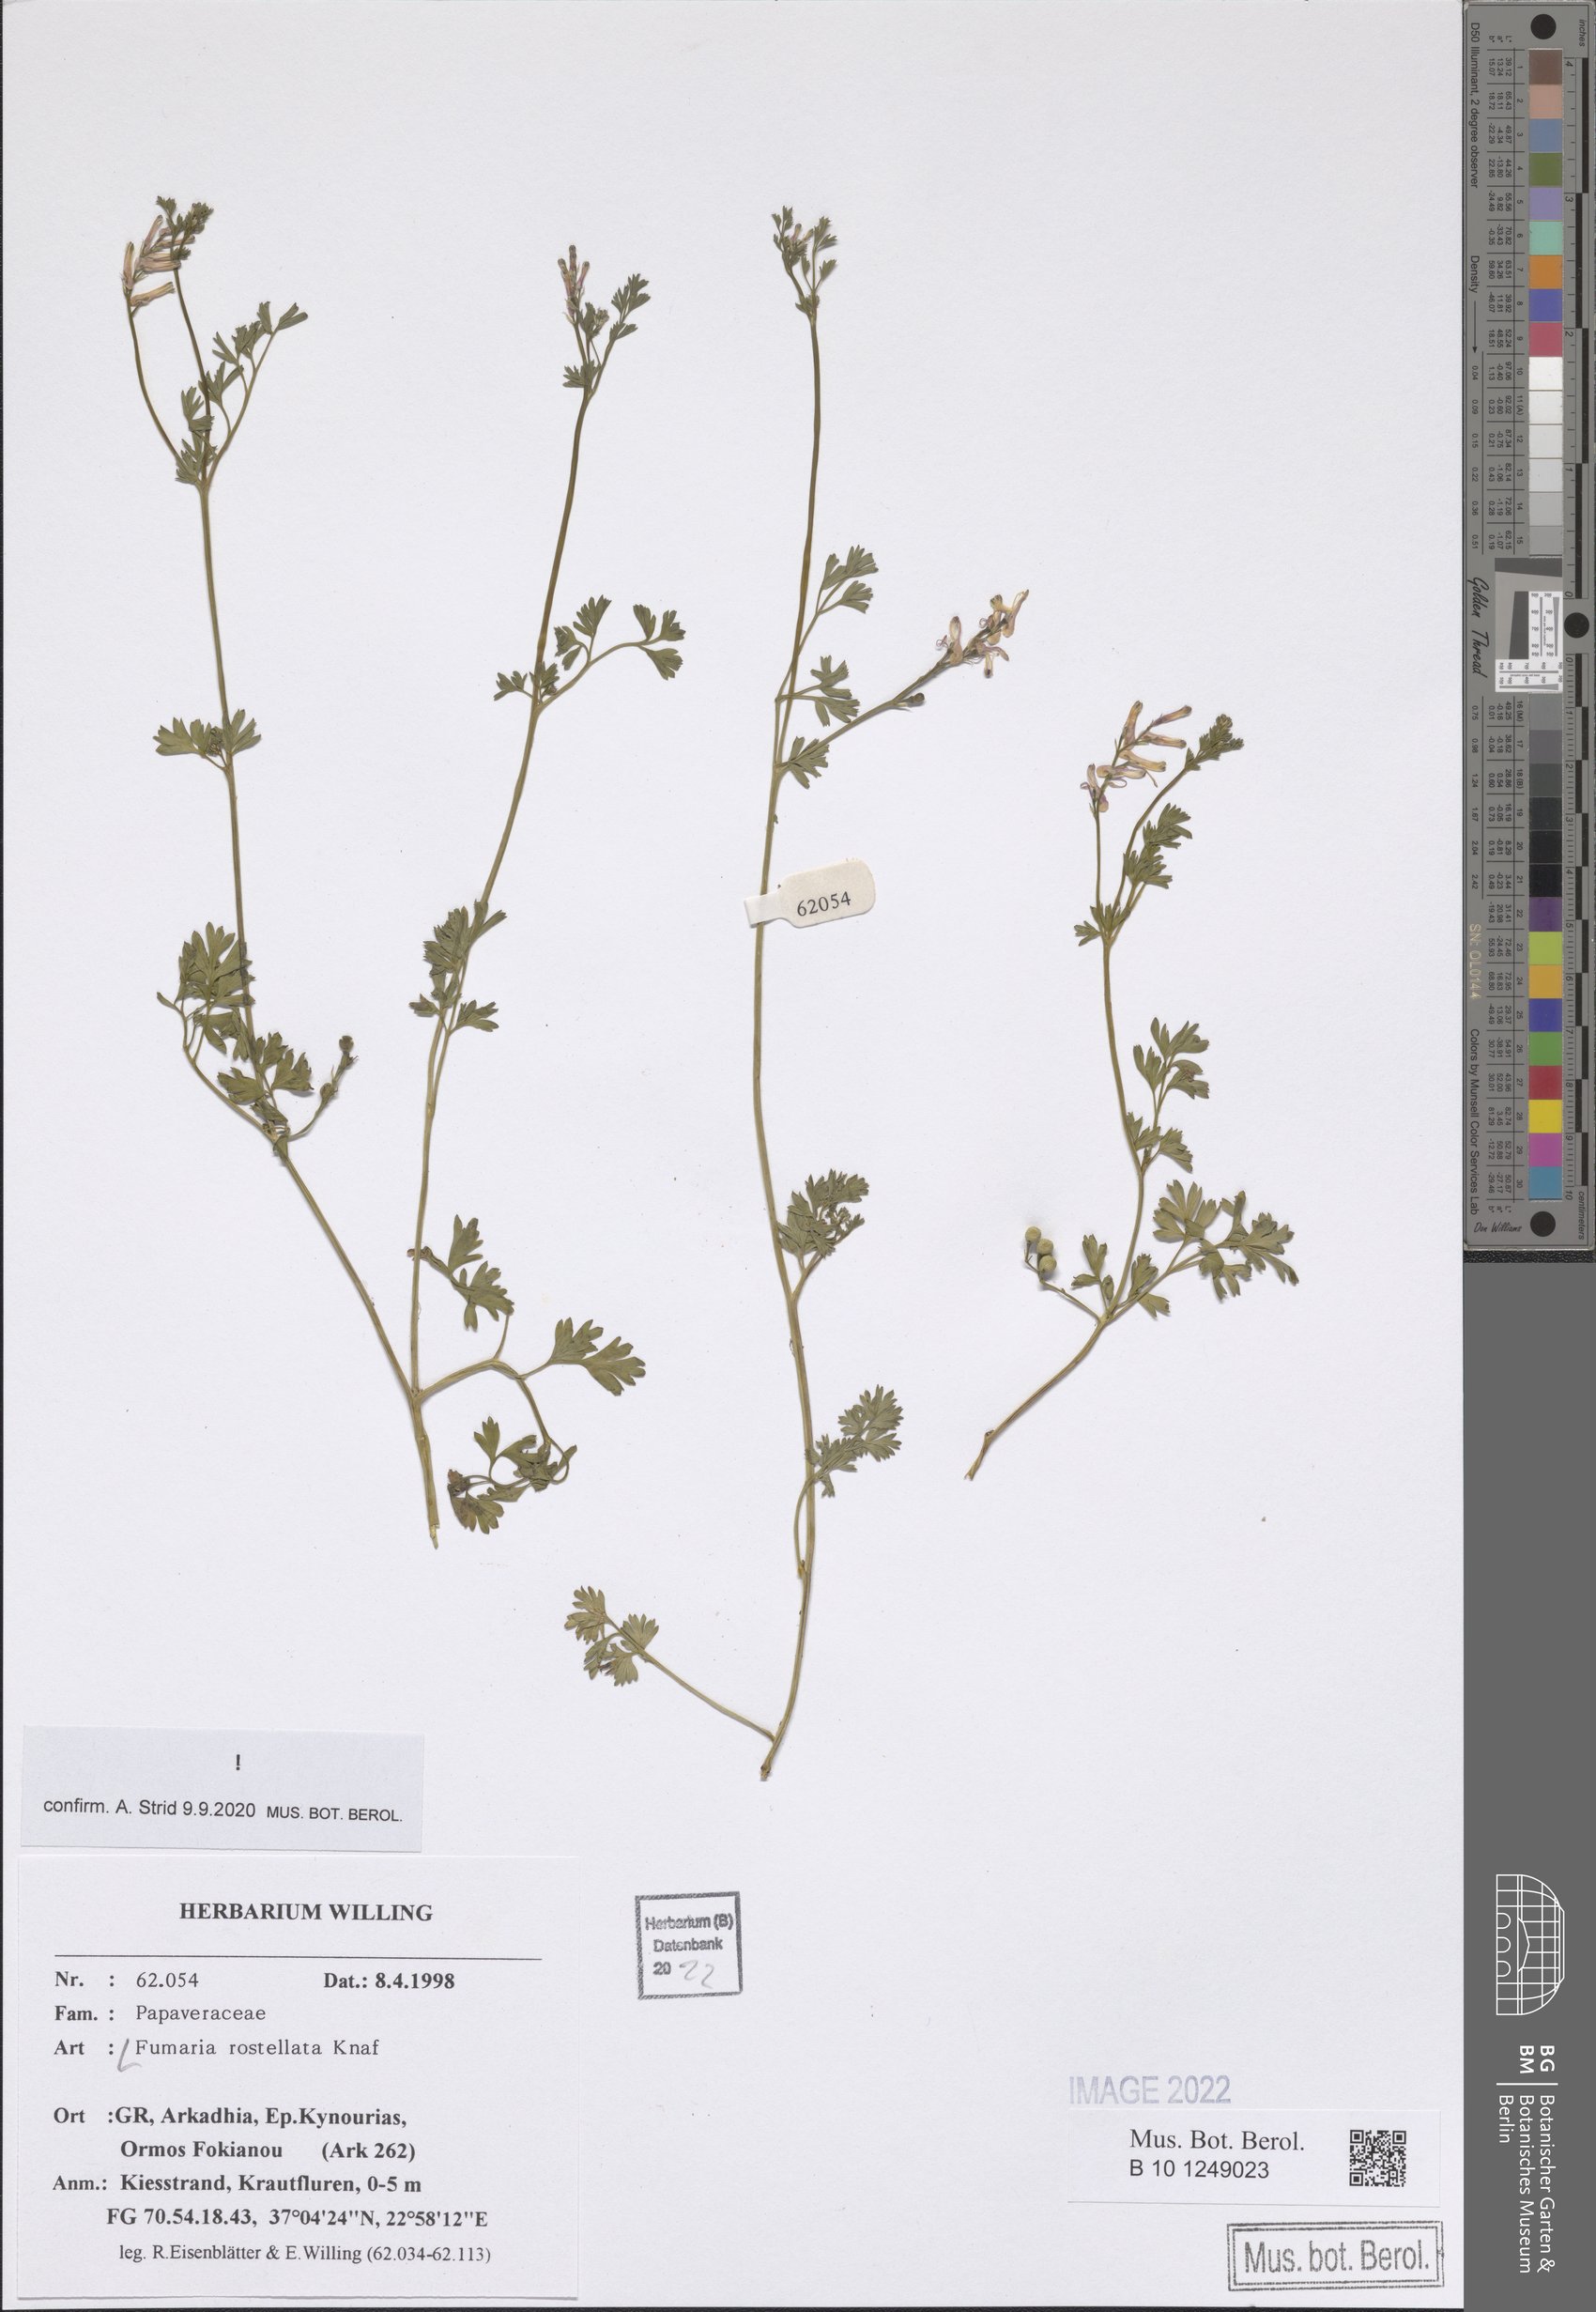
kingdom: Plantae
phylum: Tracheophyta
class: Magnoliopsida
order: Ranunculales
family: Papaveraceae
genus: Fumaria
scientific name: Fumaria rostellata
